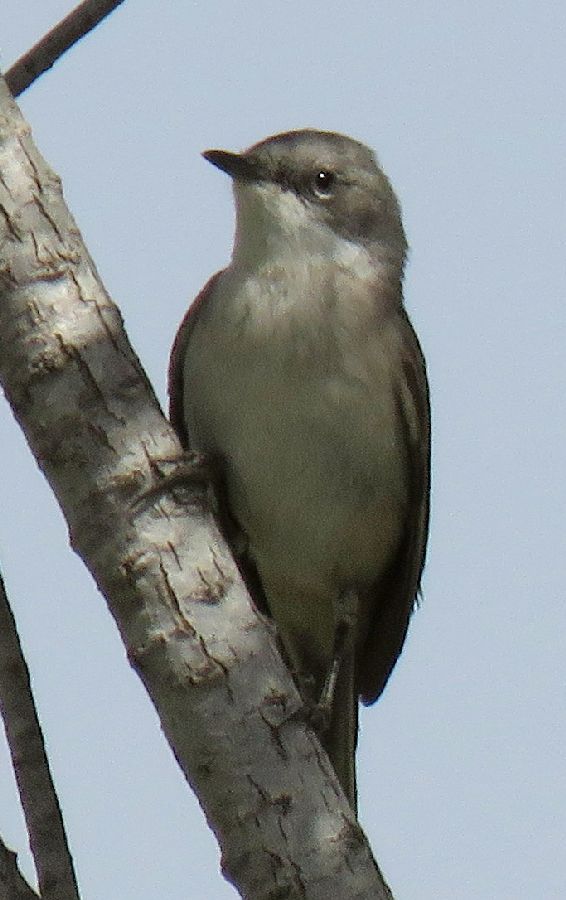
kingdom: Animalia
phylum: Chordata
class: Aves
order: Passeriformes
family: Sylviidae
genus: Sylvia
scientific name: Sylvia curruca
